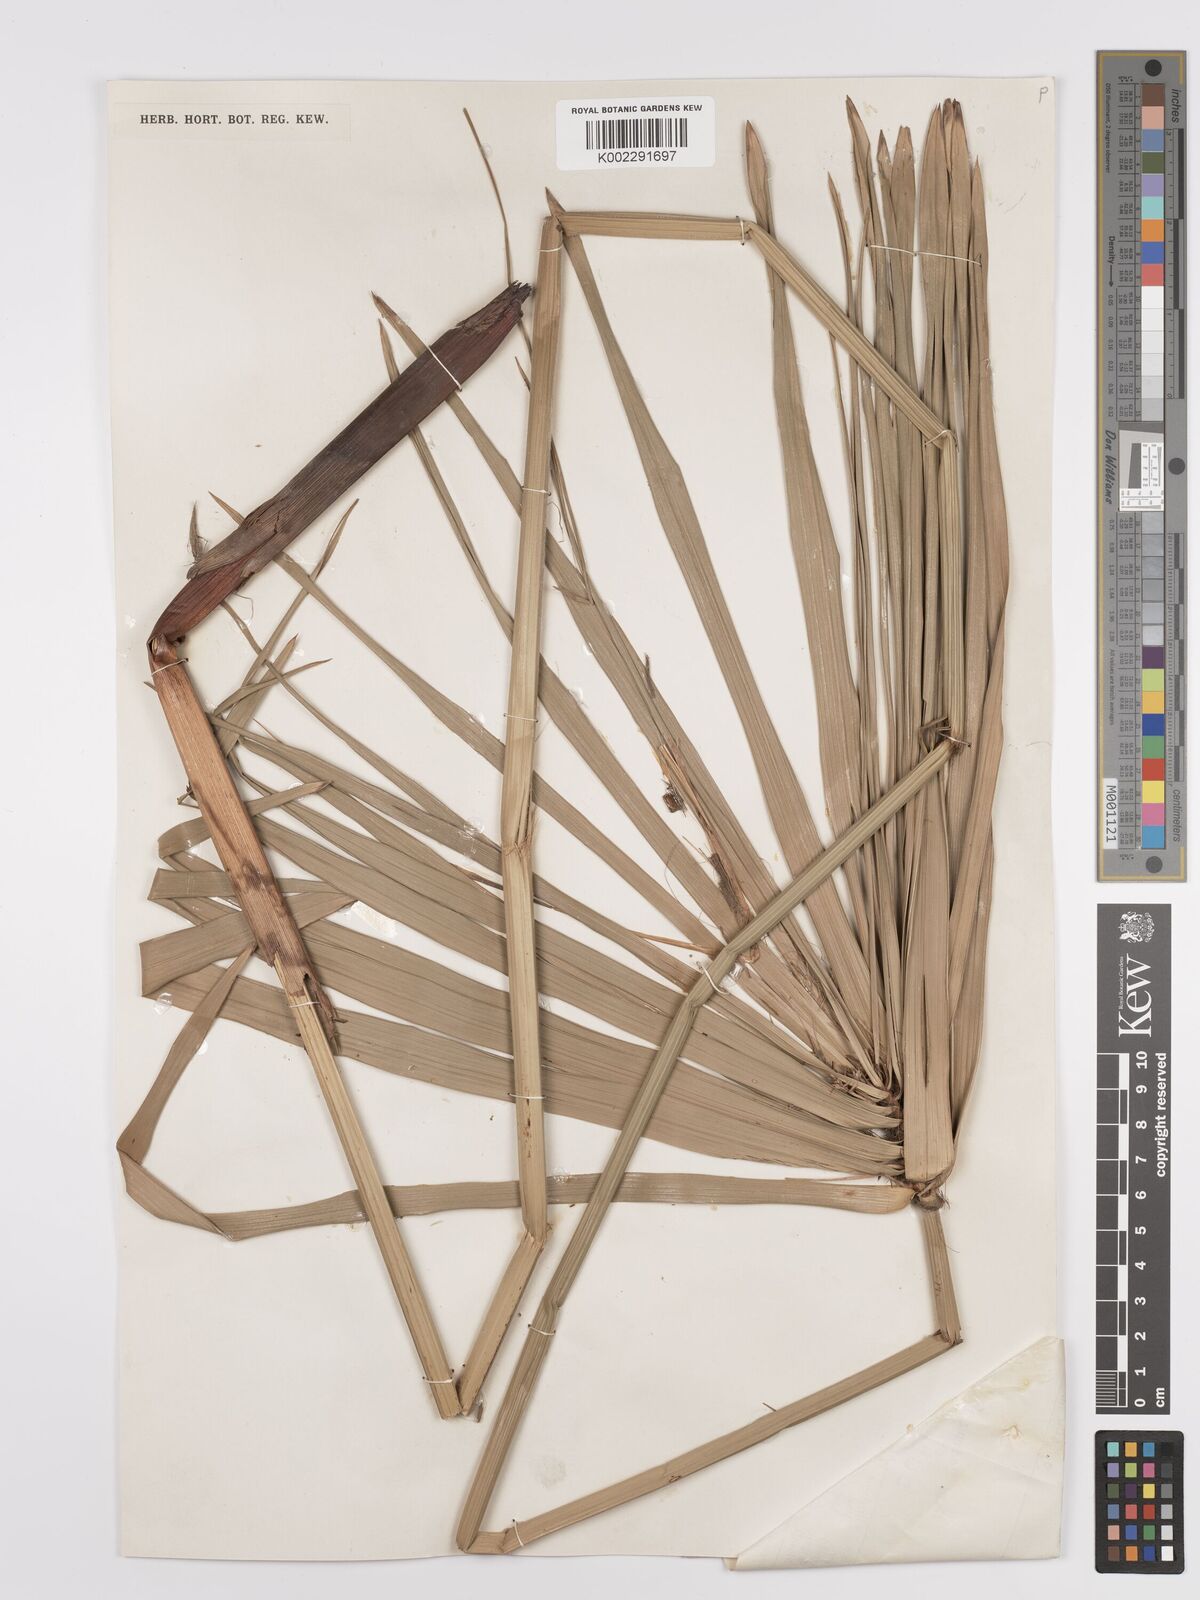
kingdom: Plantae
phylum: Tracheophyta
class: Liliopsida
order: Poales
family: Cyperaceae
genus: Cyperus
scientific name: Cyperus alternifolius
